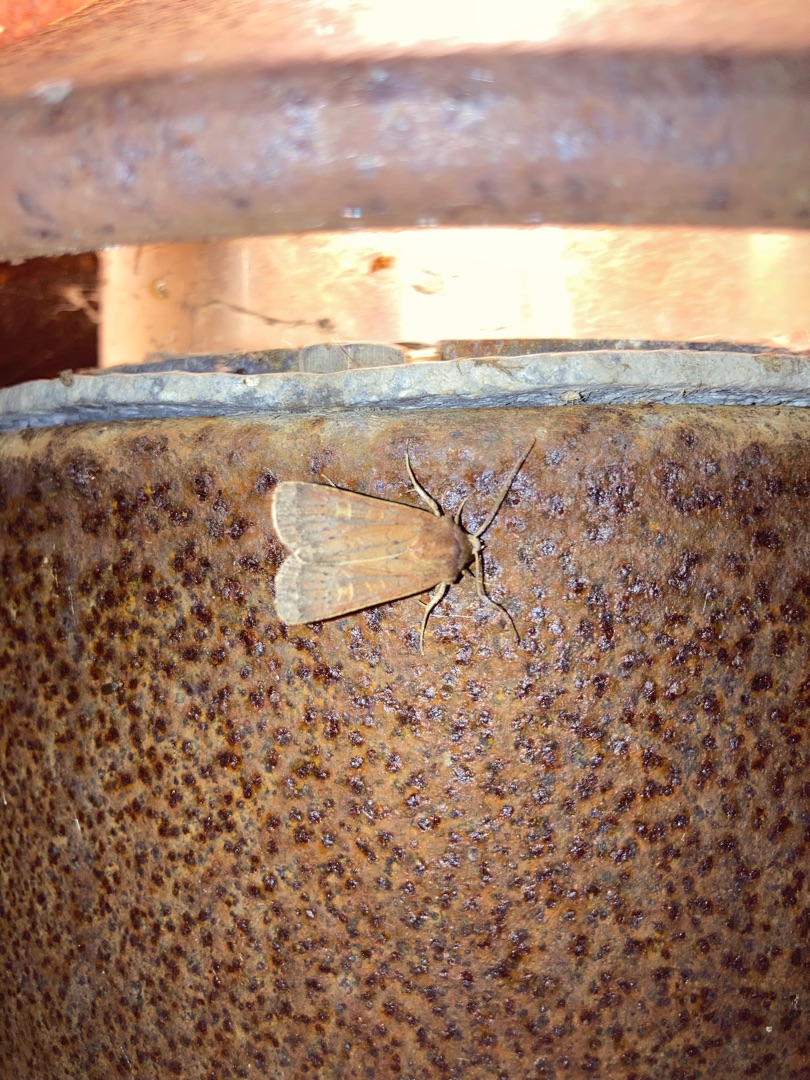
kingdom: Animalia
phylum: Arthropoda
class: Insecta
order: Lepidoptera
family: Noctuidae
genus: Xestia
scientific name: Xestia xanthographa
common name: Gulmærket glansugle
